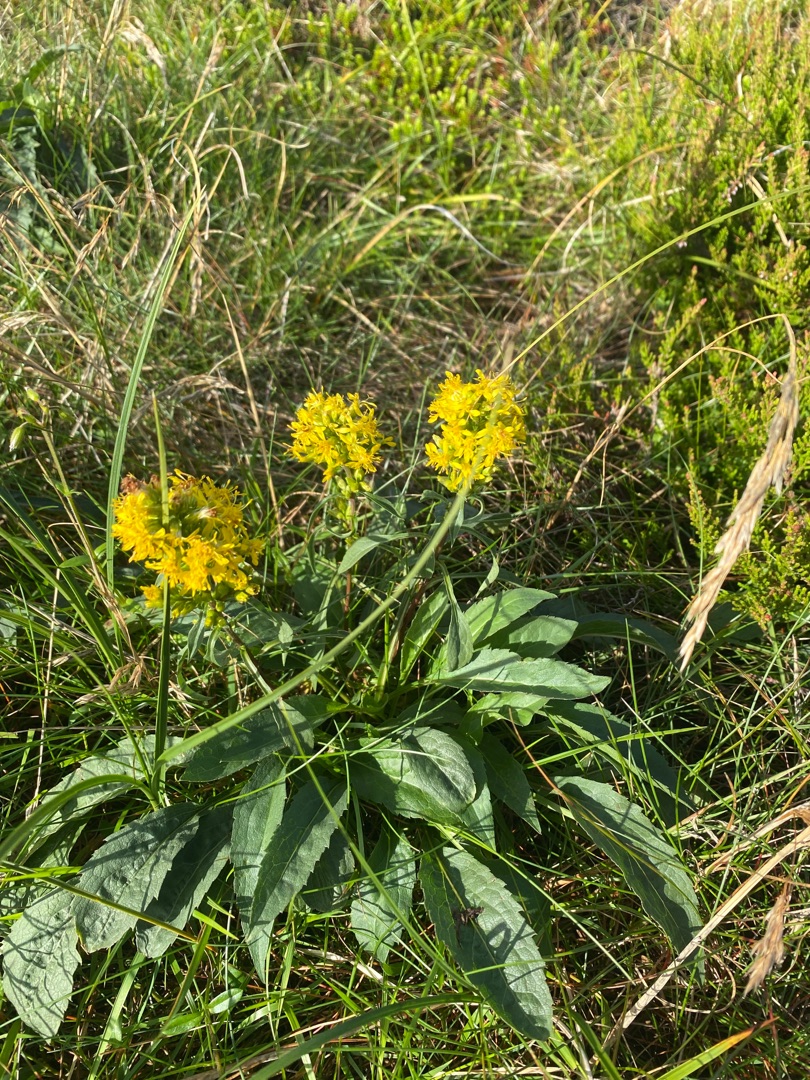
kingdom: Plantae
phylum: Tracheophyta
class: Magnoliopsida
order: Asterales
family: Asteraceae
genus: Solidago
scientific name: Solidago virgaurea
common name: Almindelig gyldenris
